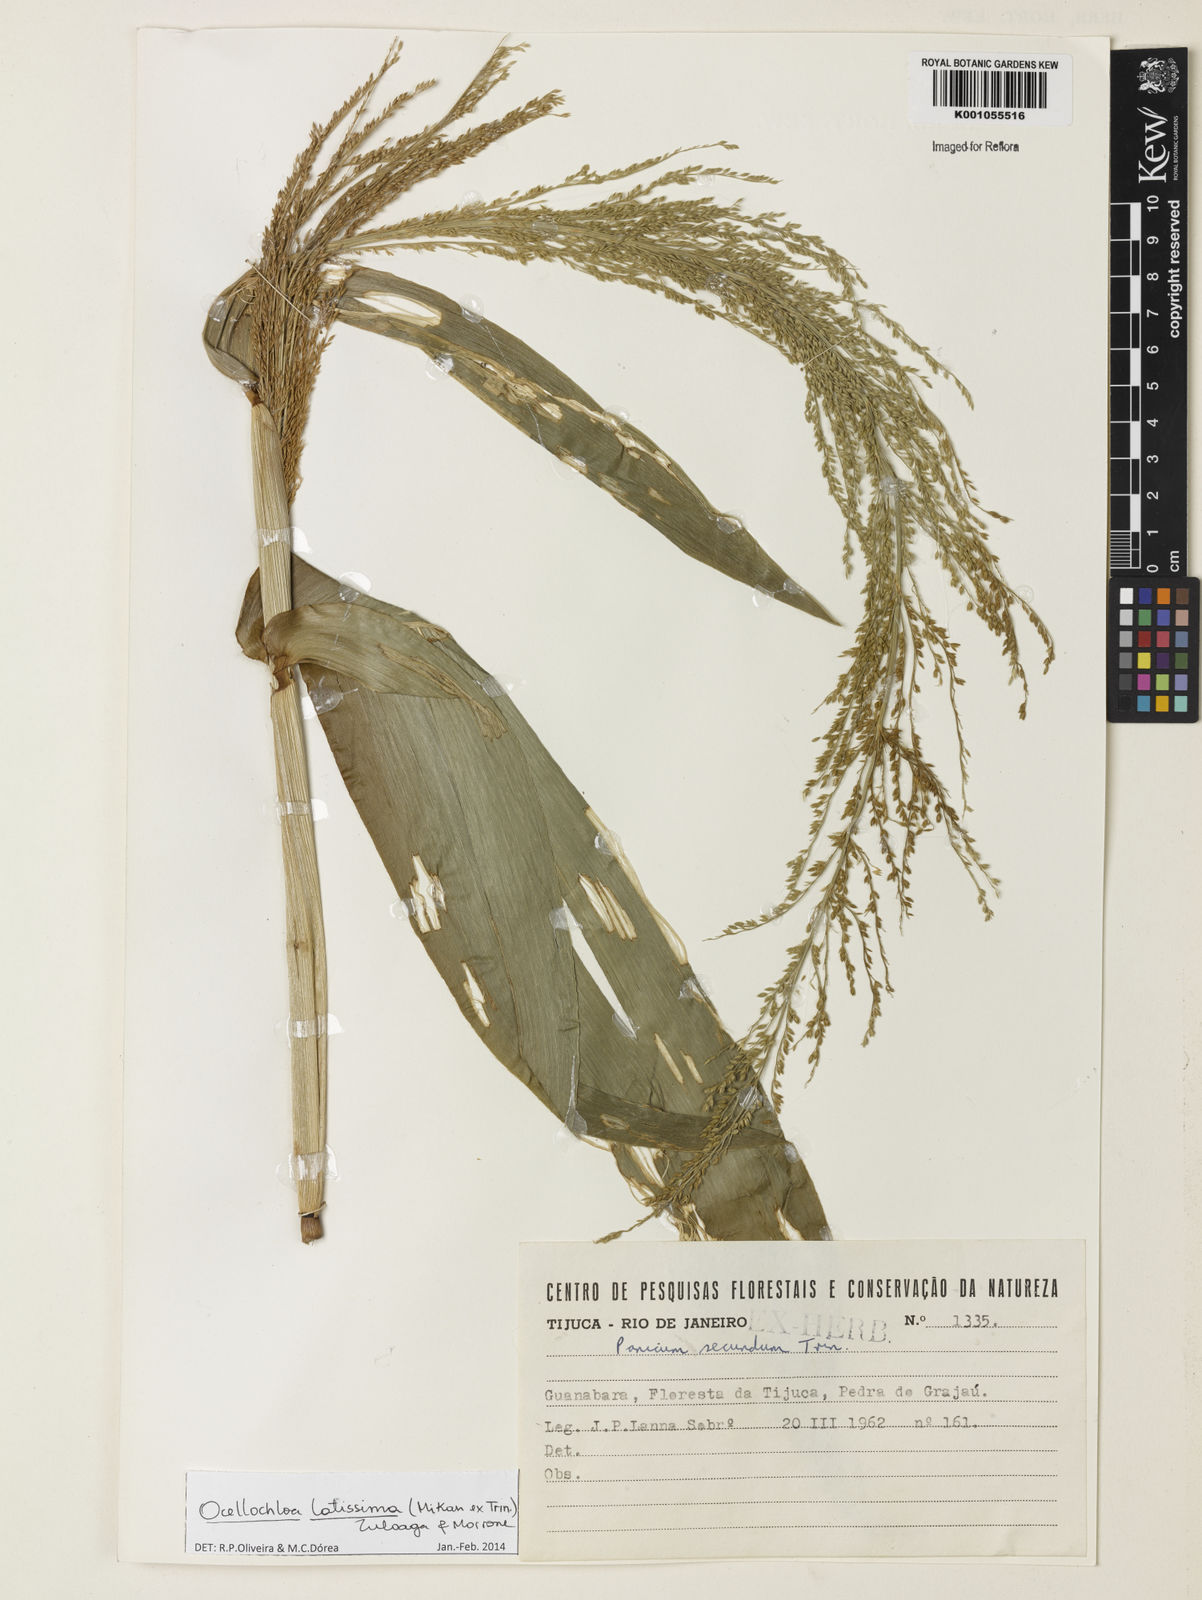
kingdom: Plantae
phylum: Tracheophyta
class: Liliopsida
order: Poales
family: Poaceae
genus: Ocellochloa
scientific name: Ocellochloa latissima
